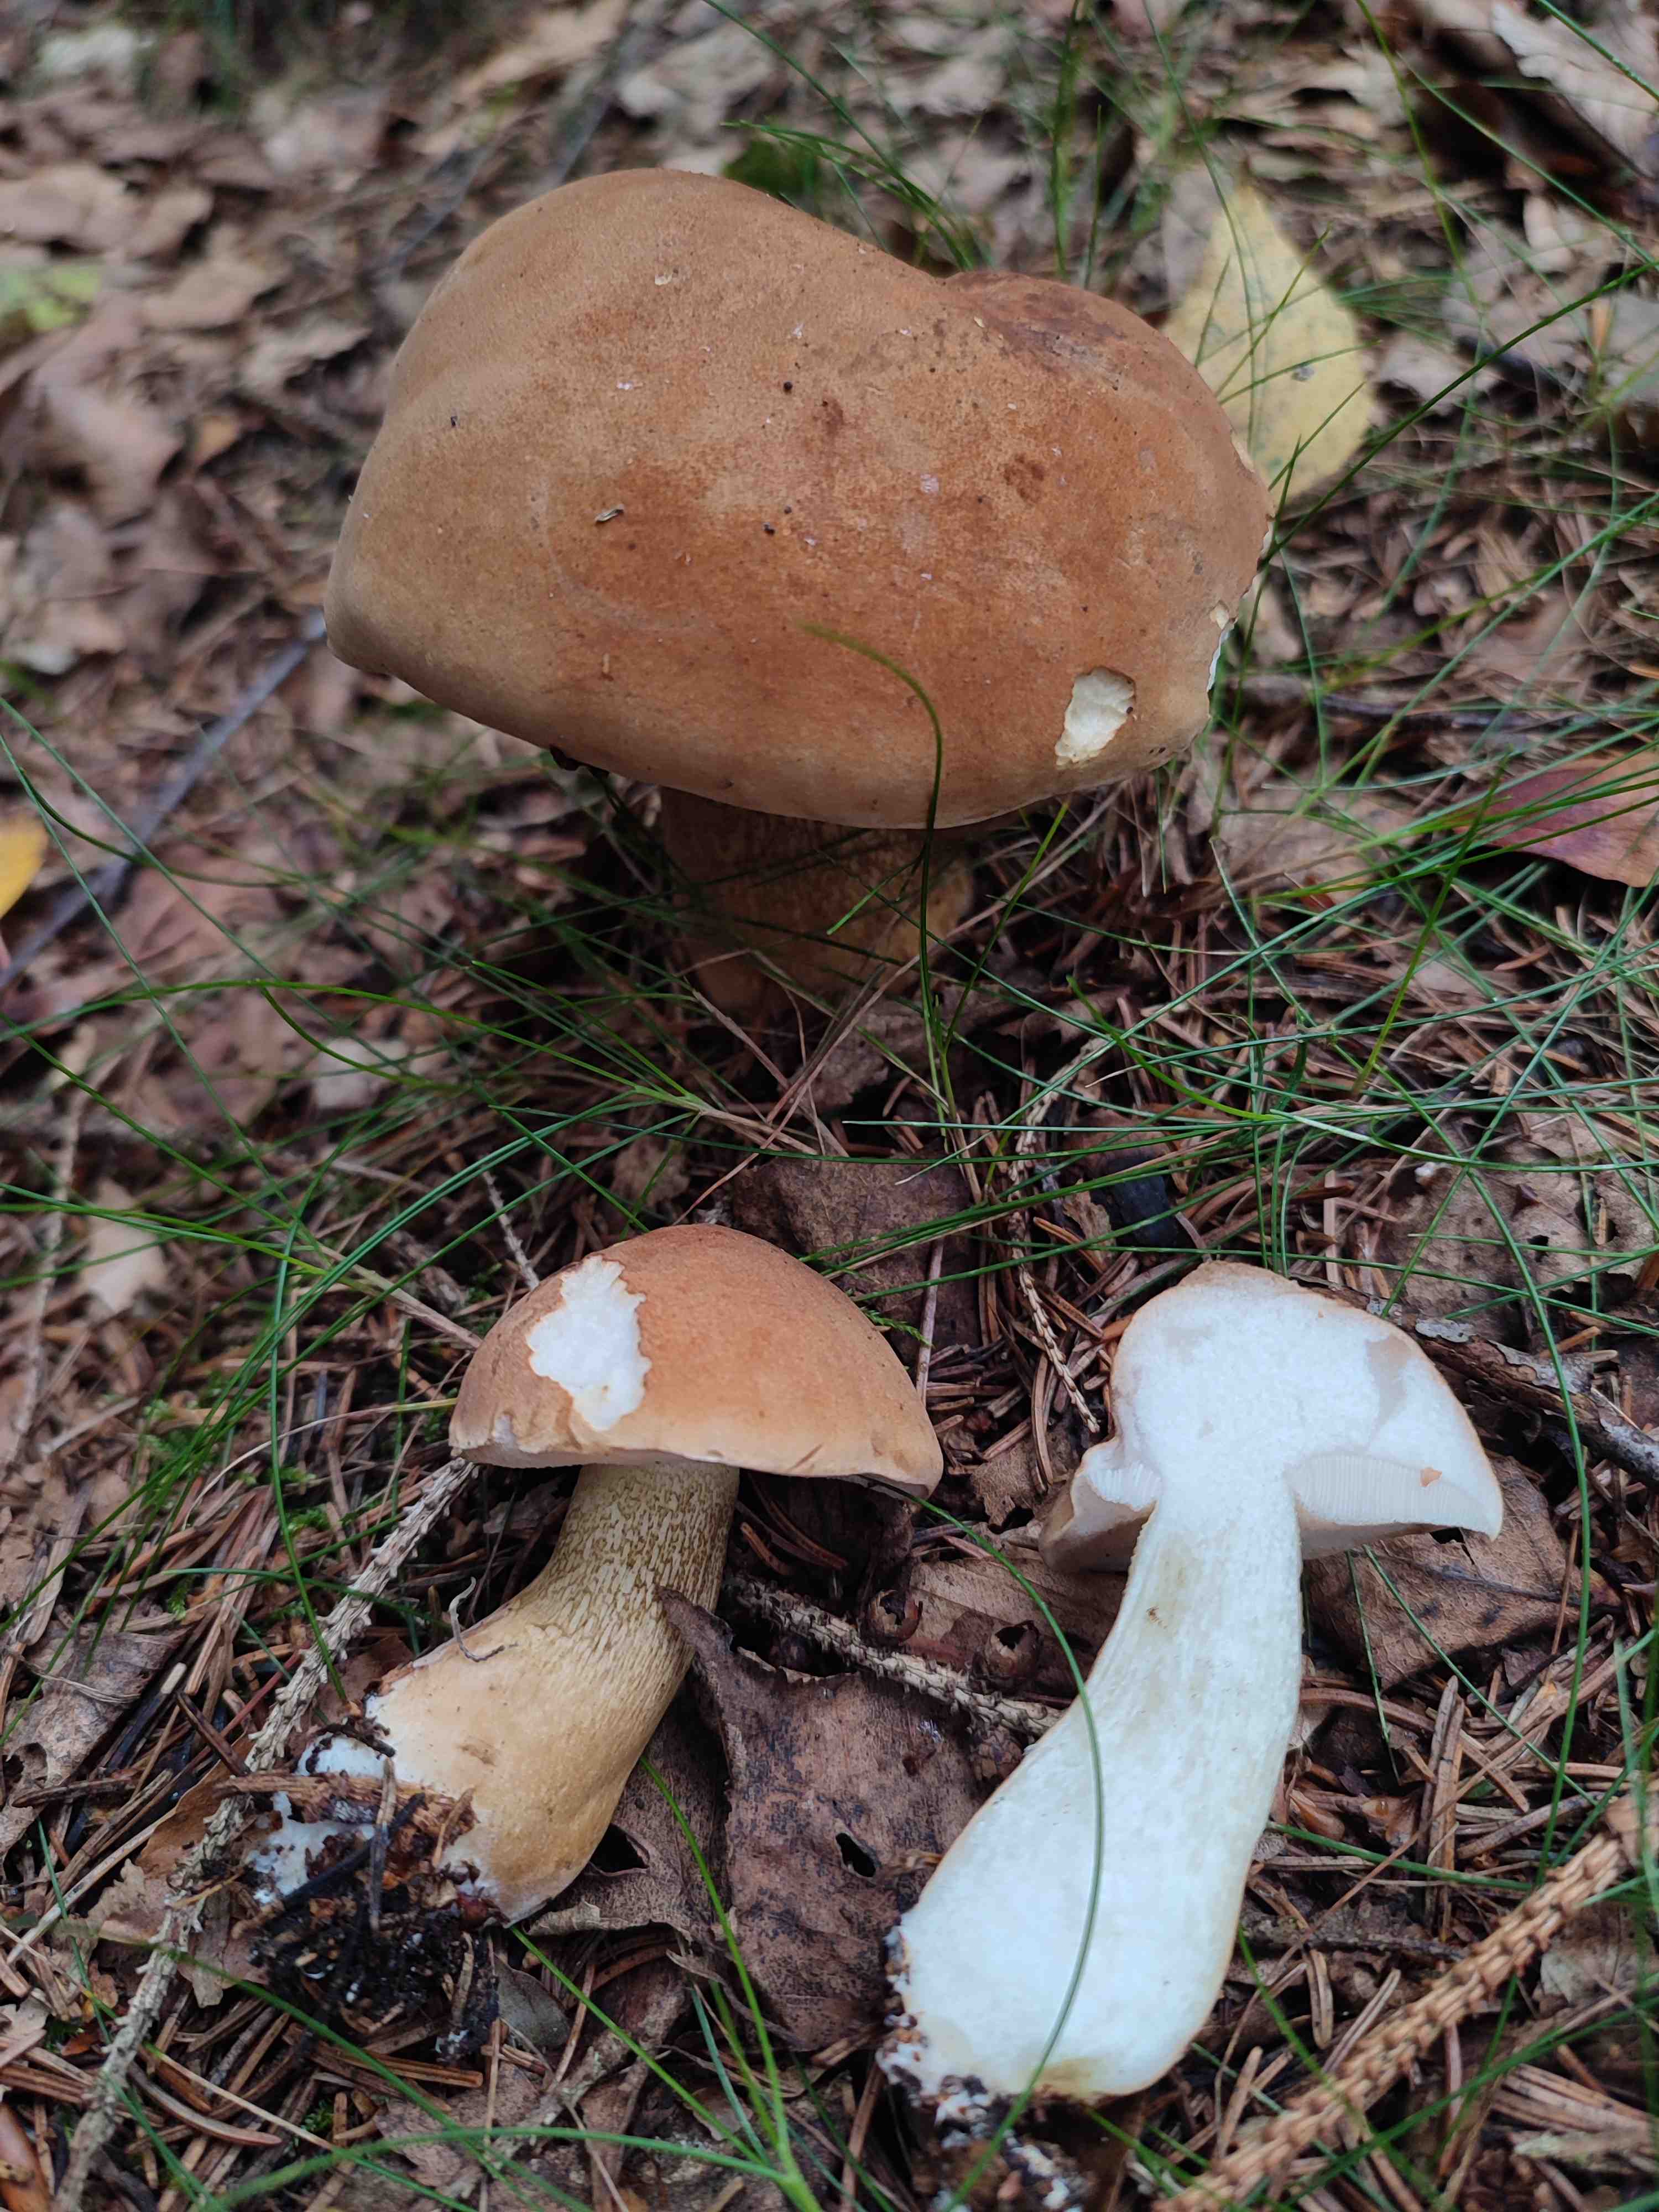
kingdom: Fungi
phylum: Basidiomycota
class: Agaricomycetes
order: Boletales
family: Boletaceae
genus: Tylopilus
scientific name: Tylopilus felleus
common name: galderørhat
